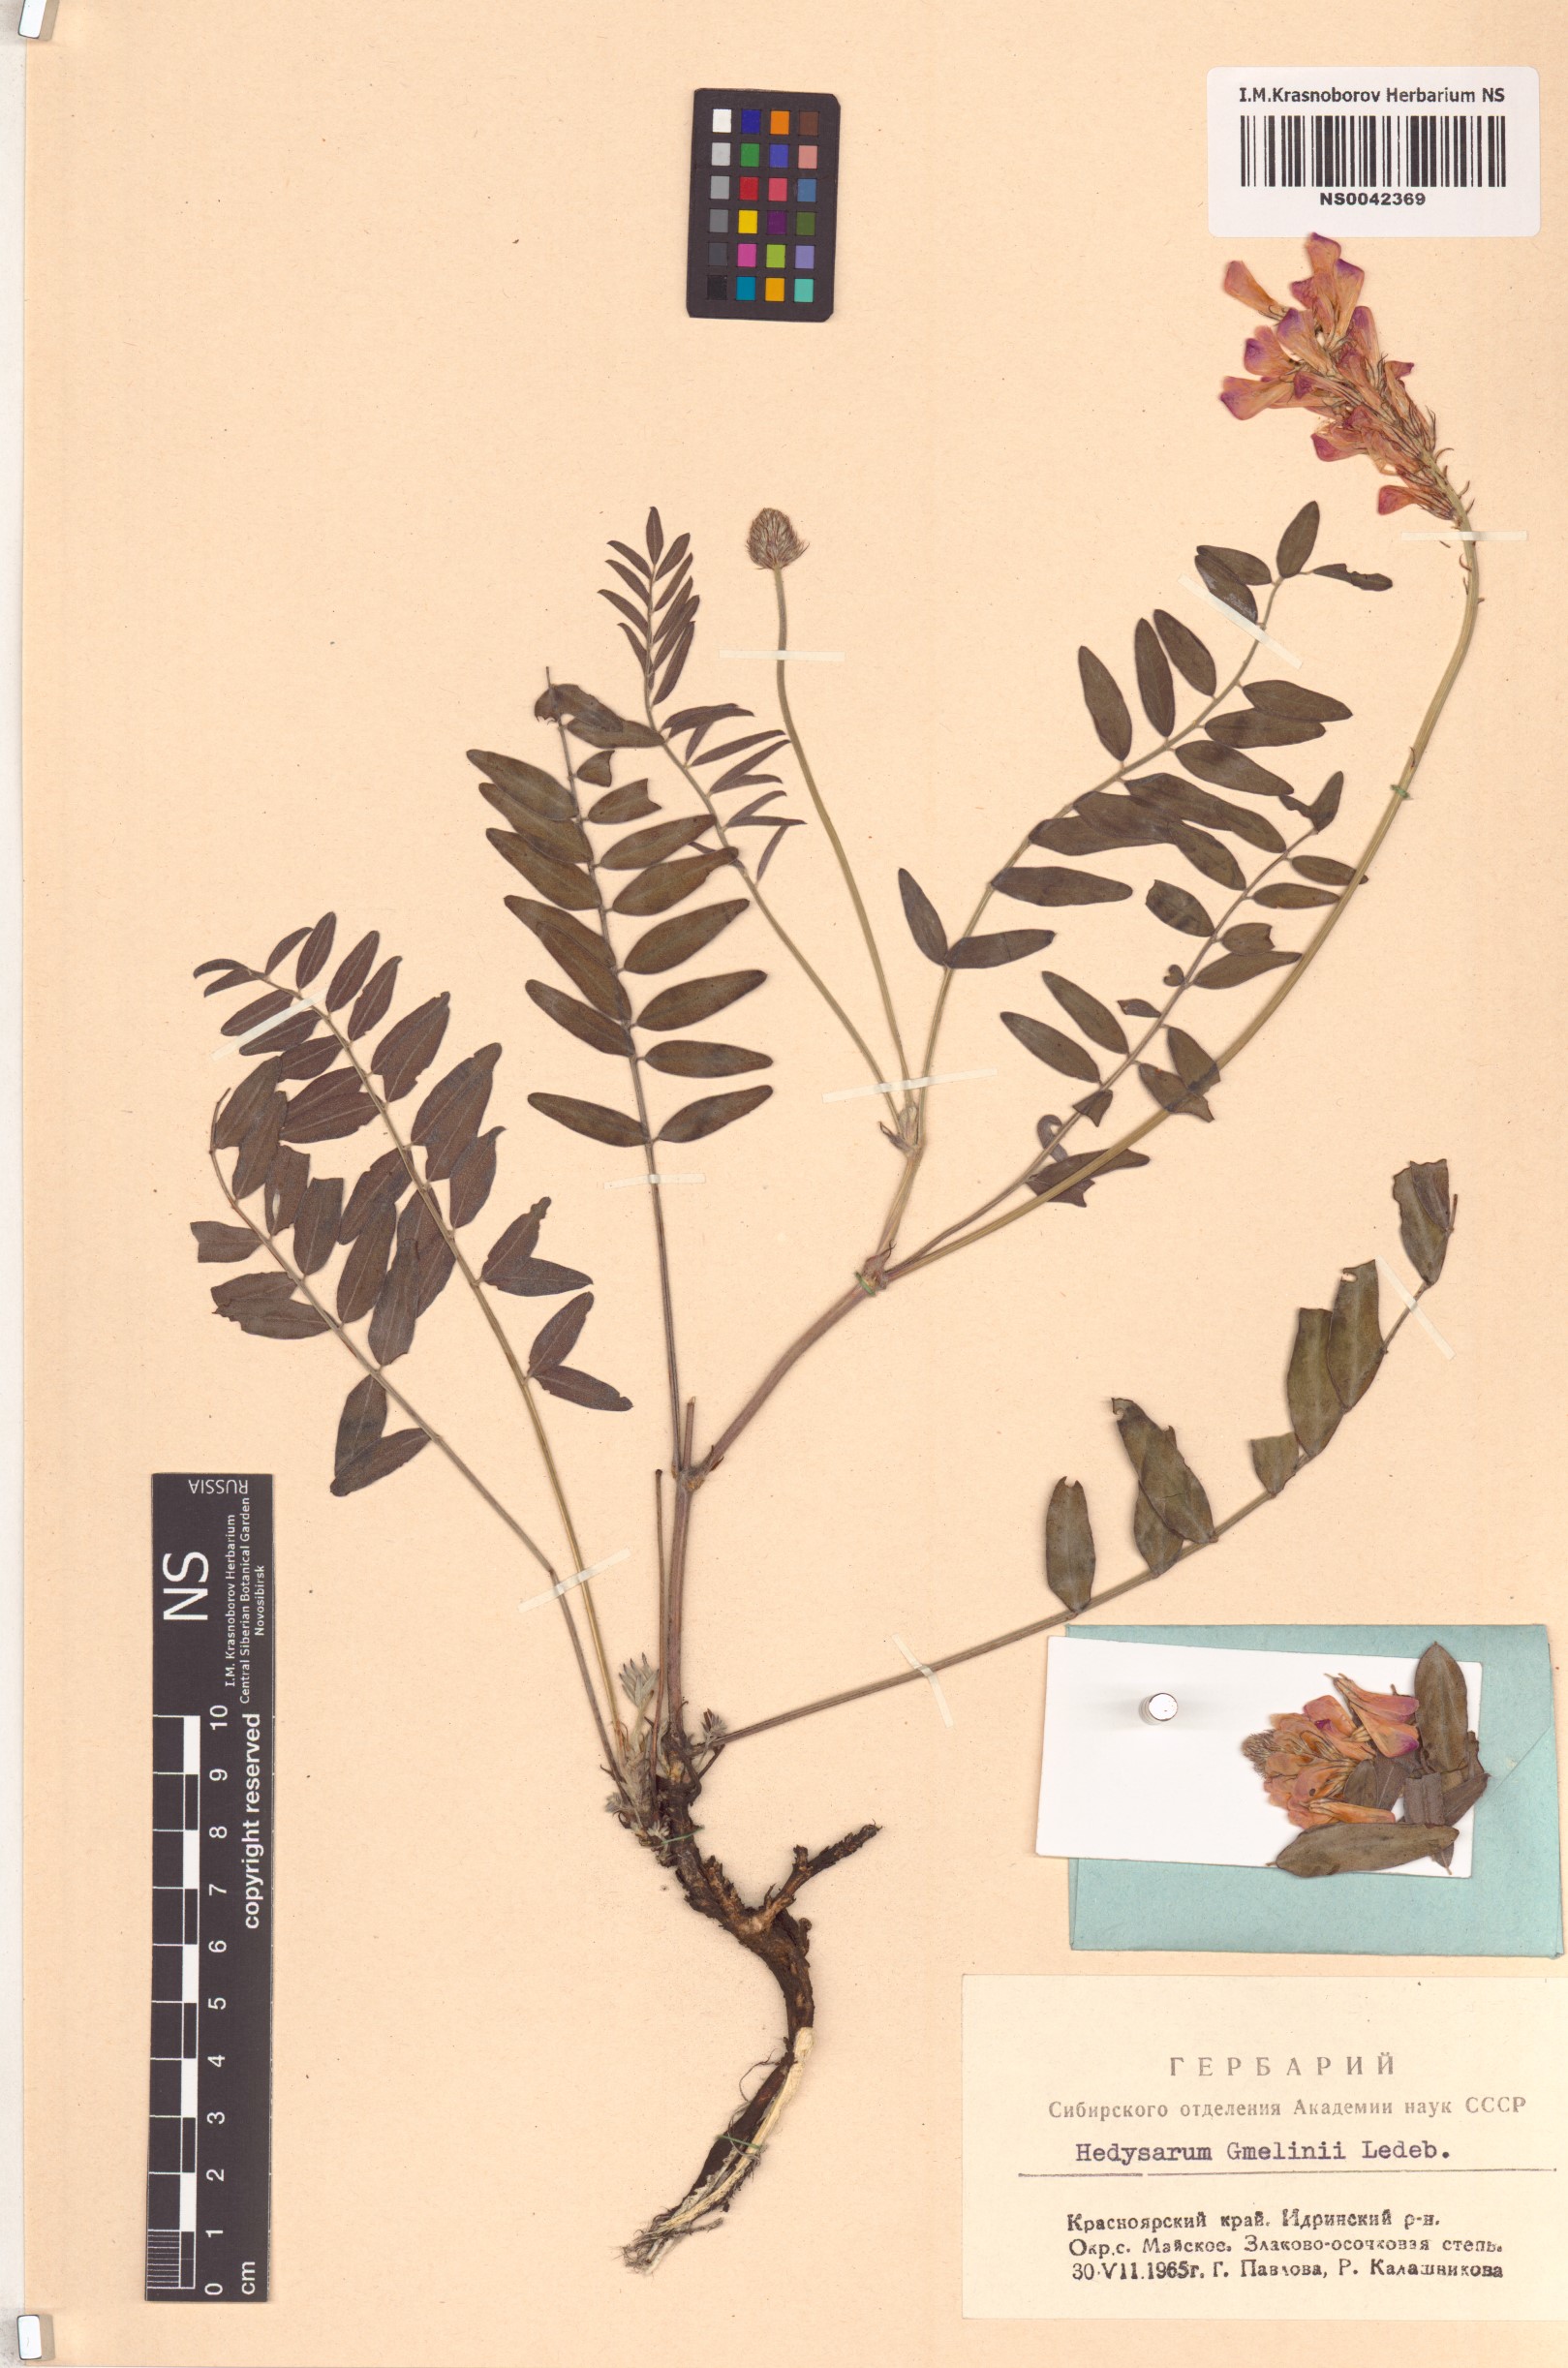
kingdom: Plantae
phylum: Tracheophyta
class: Magnoliopsida
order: Fabales
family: Fabaceae
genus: Hedysarum
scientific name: Hedysarum gmelinii
